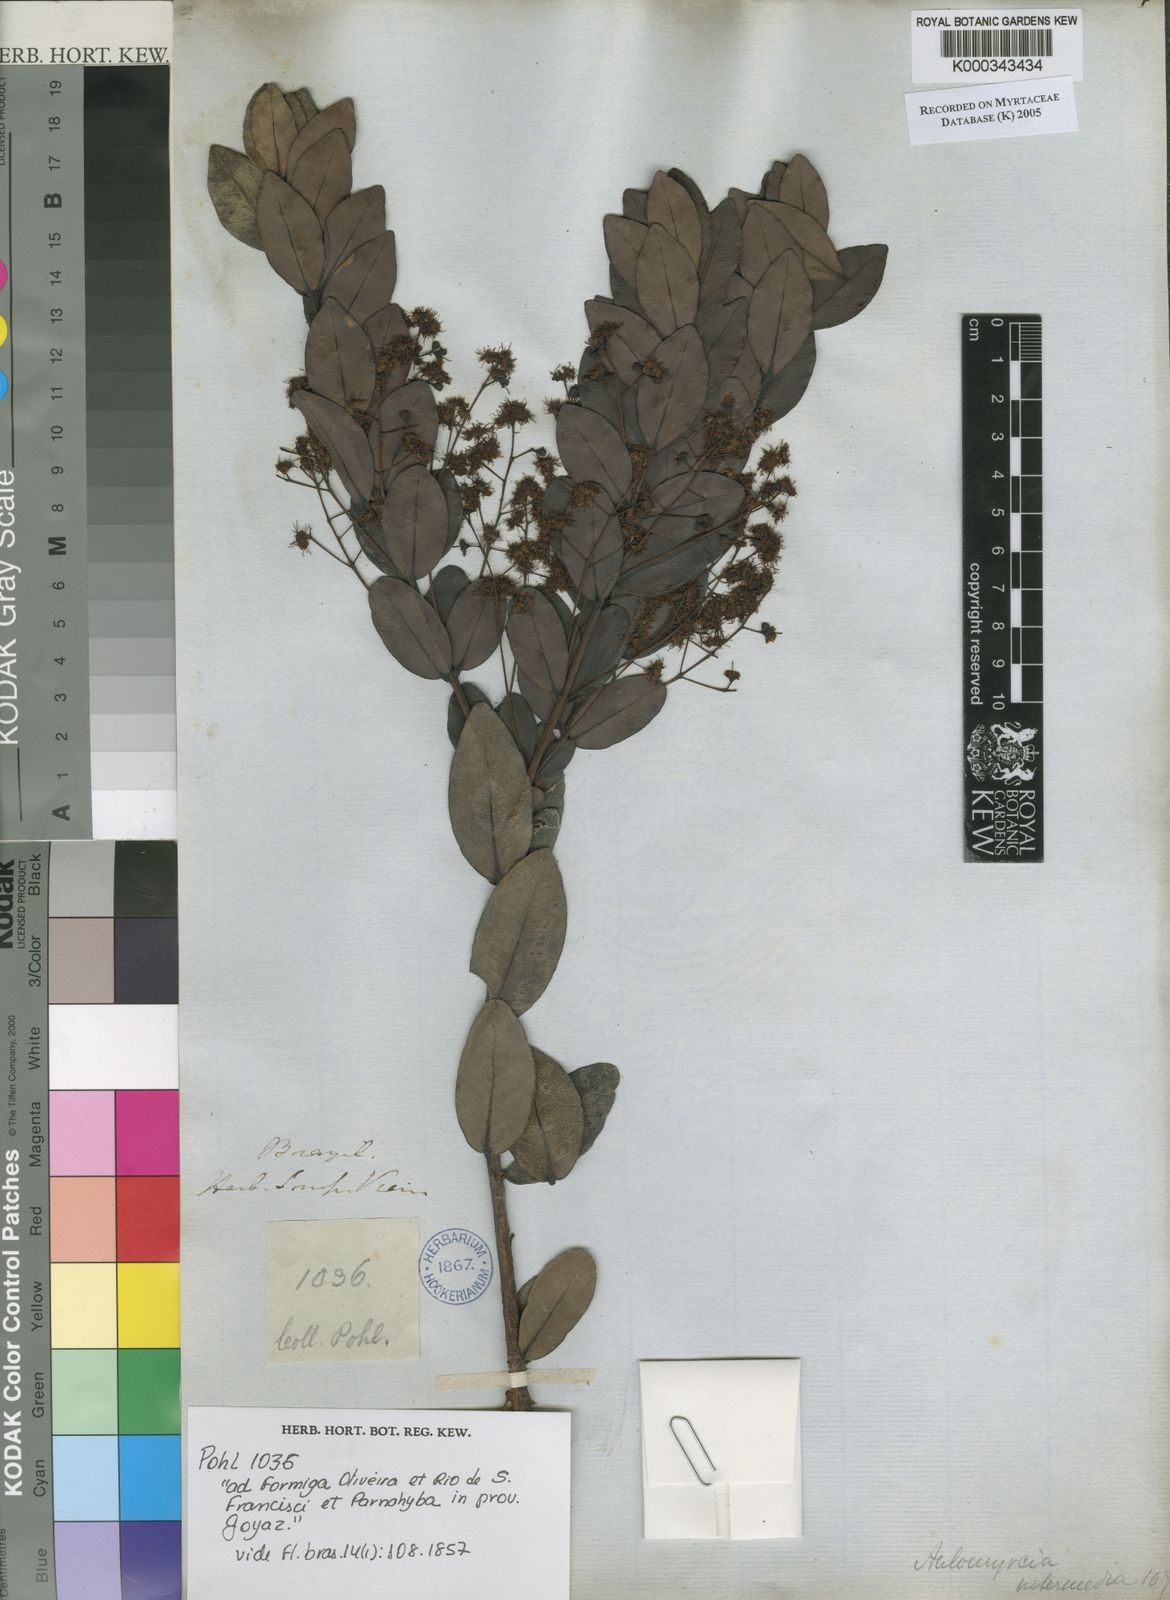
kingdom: Plantae
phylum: Tracheophyta
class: Magnoliopsida
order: Myrtales
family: Myrtaceae
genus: Myrcia
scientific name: Myrcia guianensis
